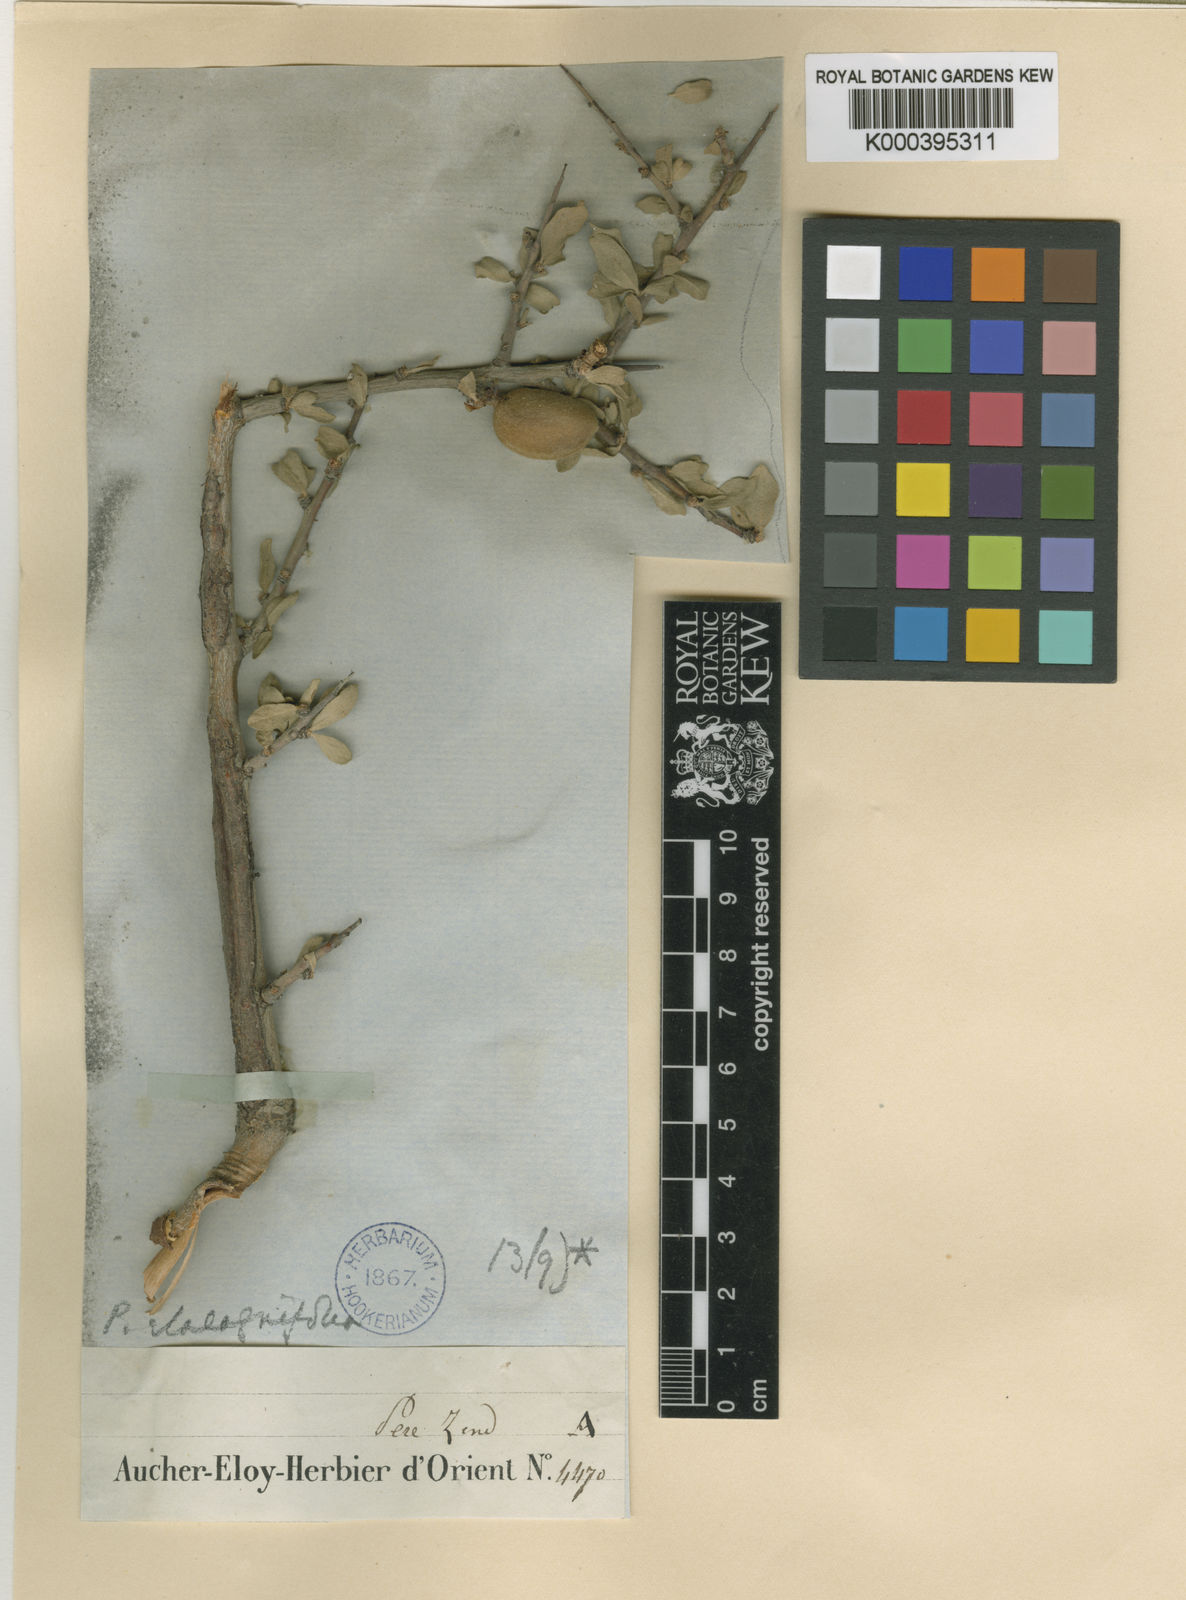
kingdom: Plantae
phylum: Tracheophyta
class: Magnoliopsida
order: Rosales
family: Rosaceae
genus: Prunus
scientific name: Prunus argentea
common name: Silver almond
